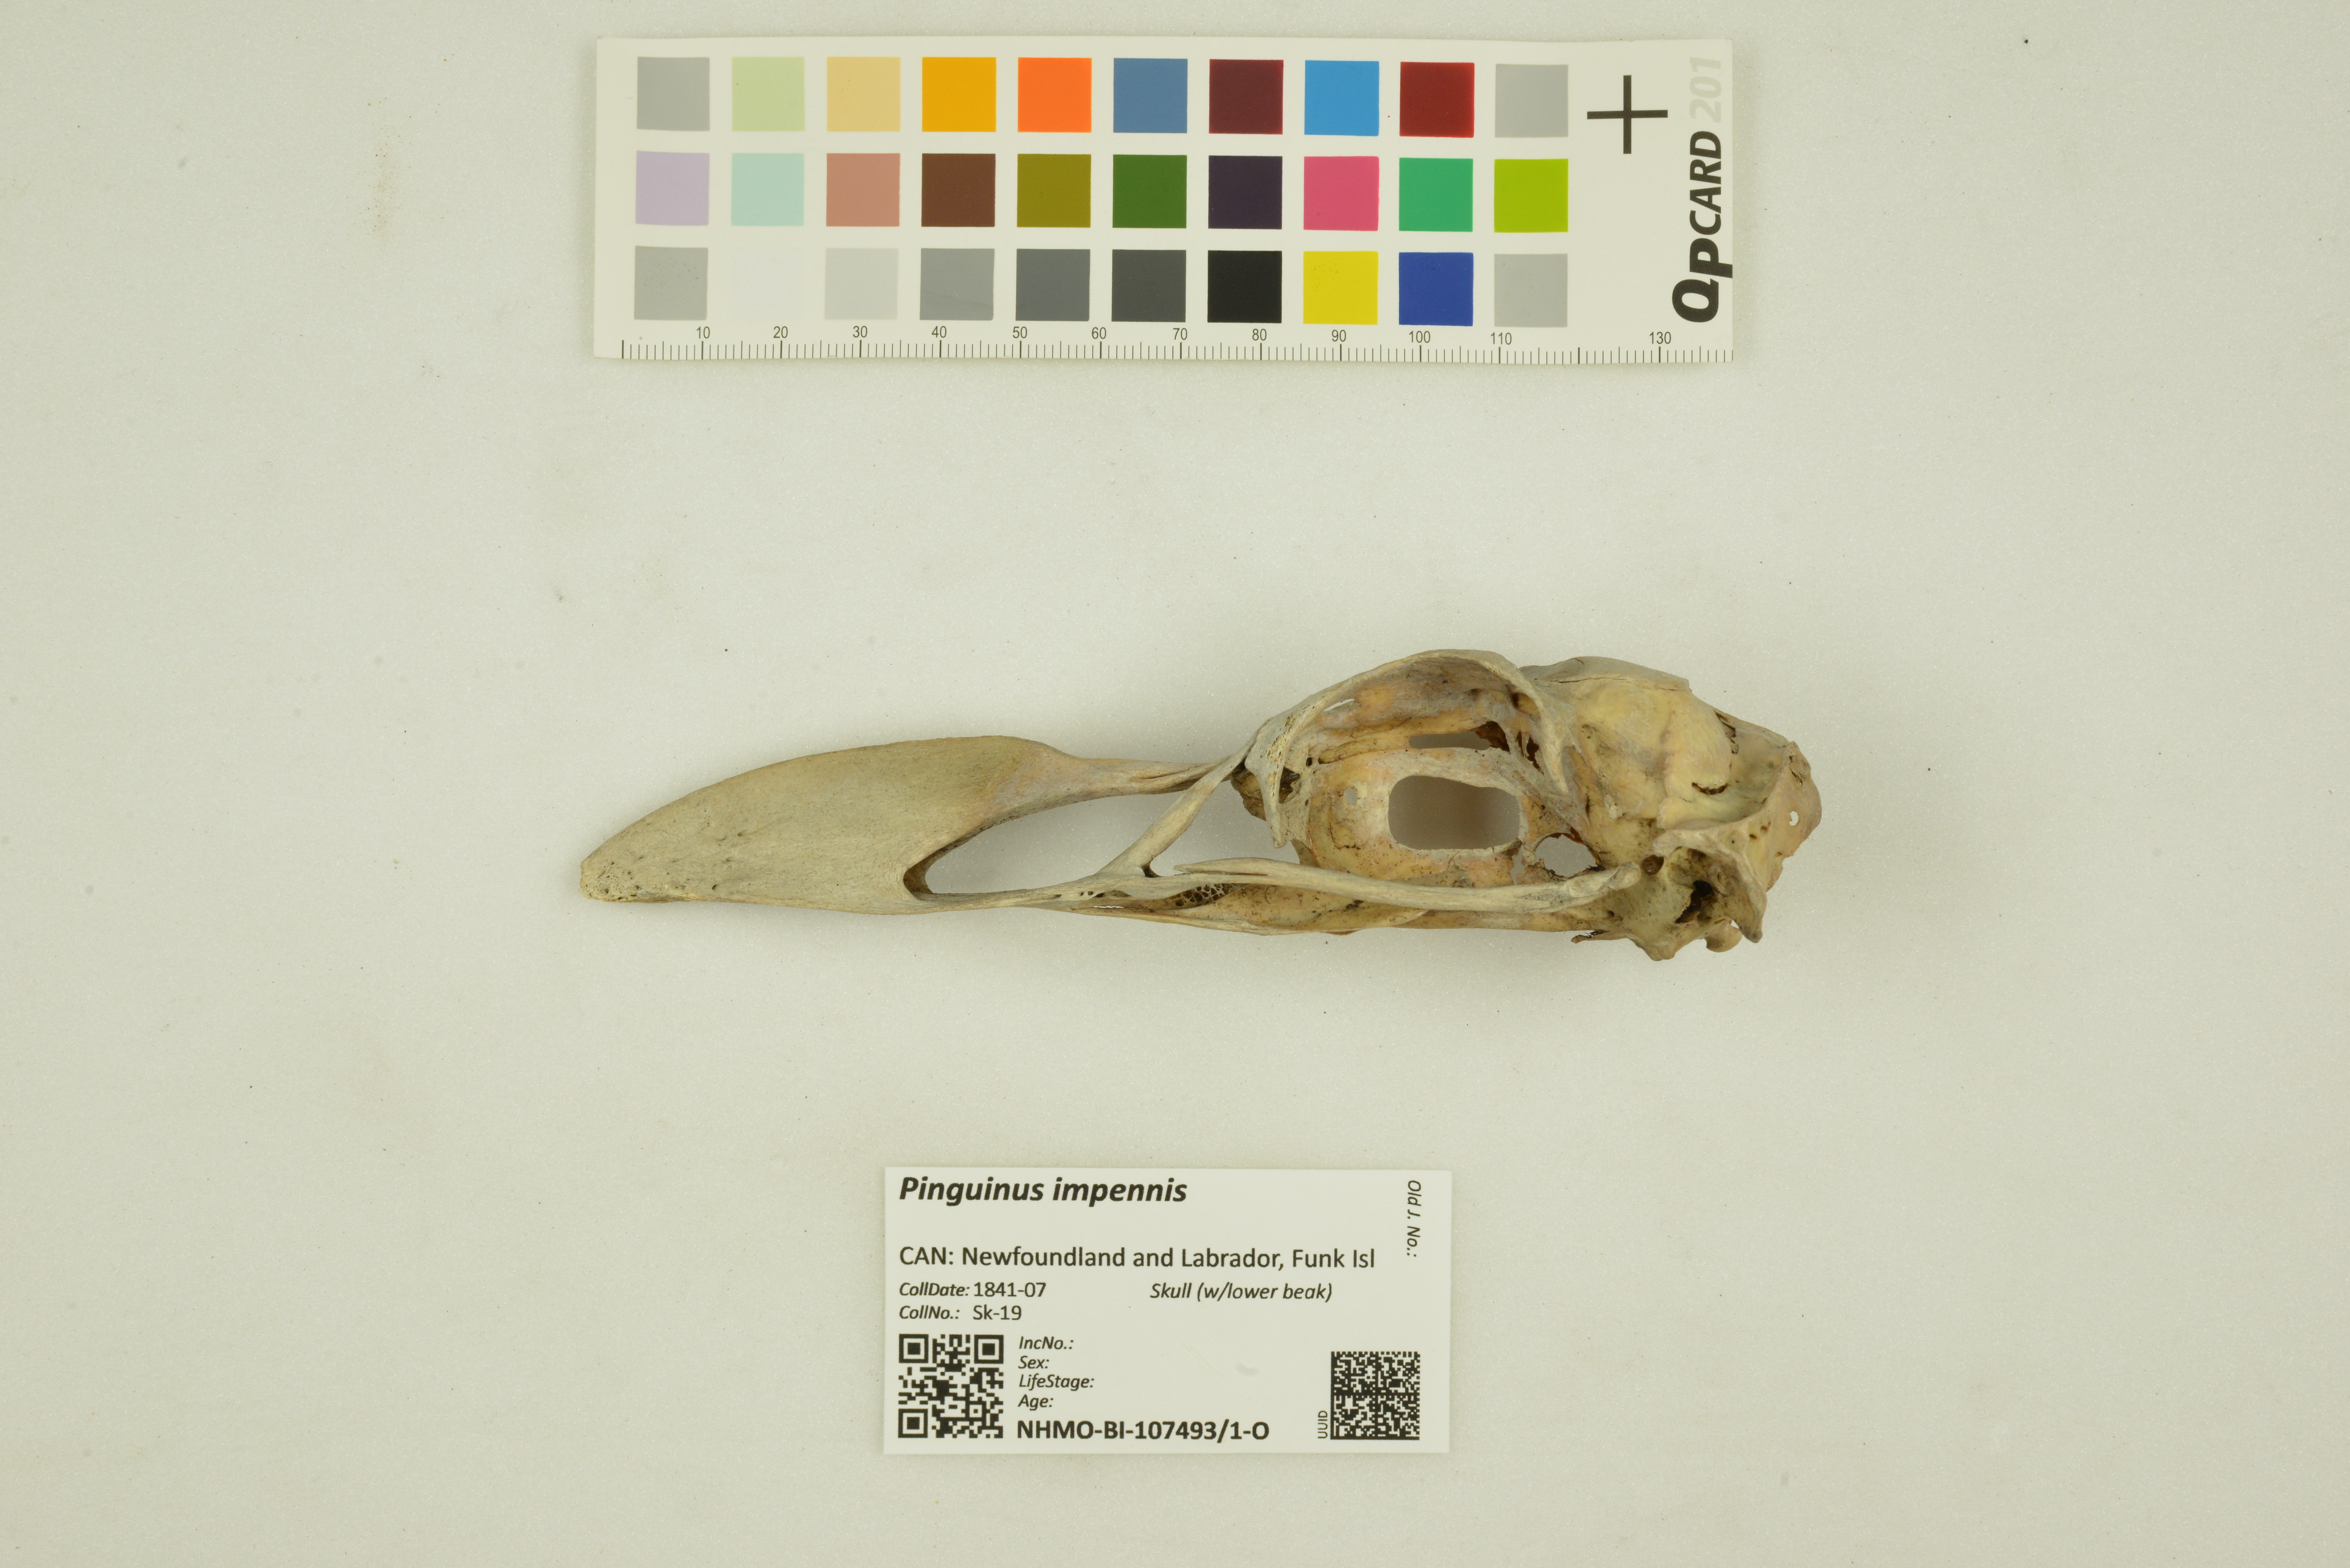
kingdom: Animalia
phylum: Chordata
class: Aves
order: Charadriiformes
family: Alcidae
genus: Pinguinus
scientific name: Pinguinus impennis
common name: Great auk
